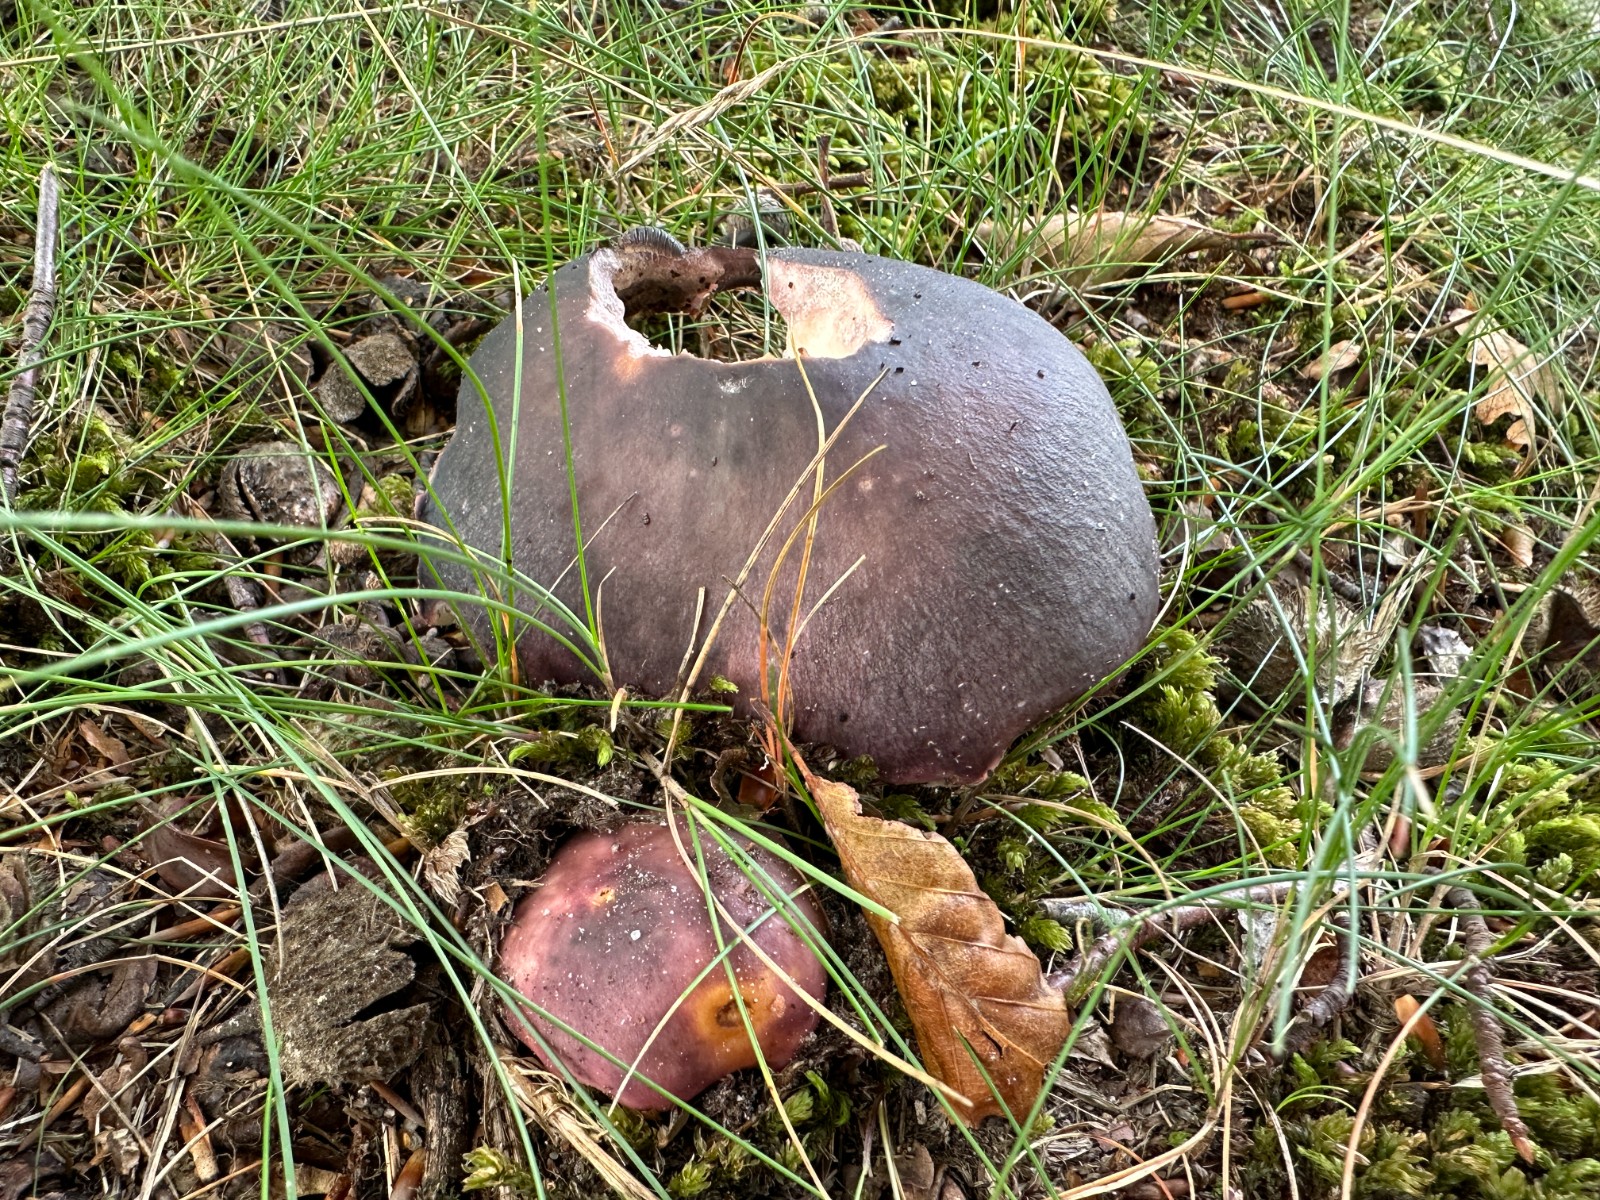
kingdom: Fungi
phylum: Basidiomycota
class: Agaricomycetes
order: Russulales
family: Russulaceae
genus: Russula
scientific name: Russula cyanoxantha
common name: broget skørhat
